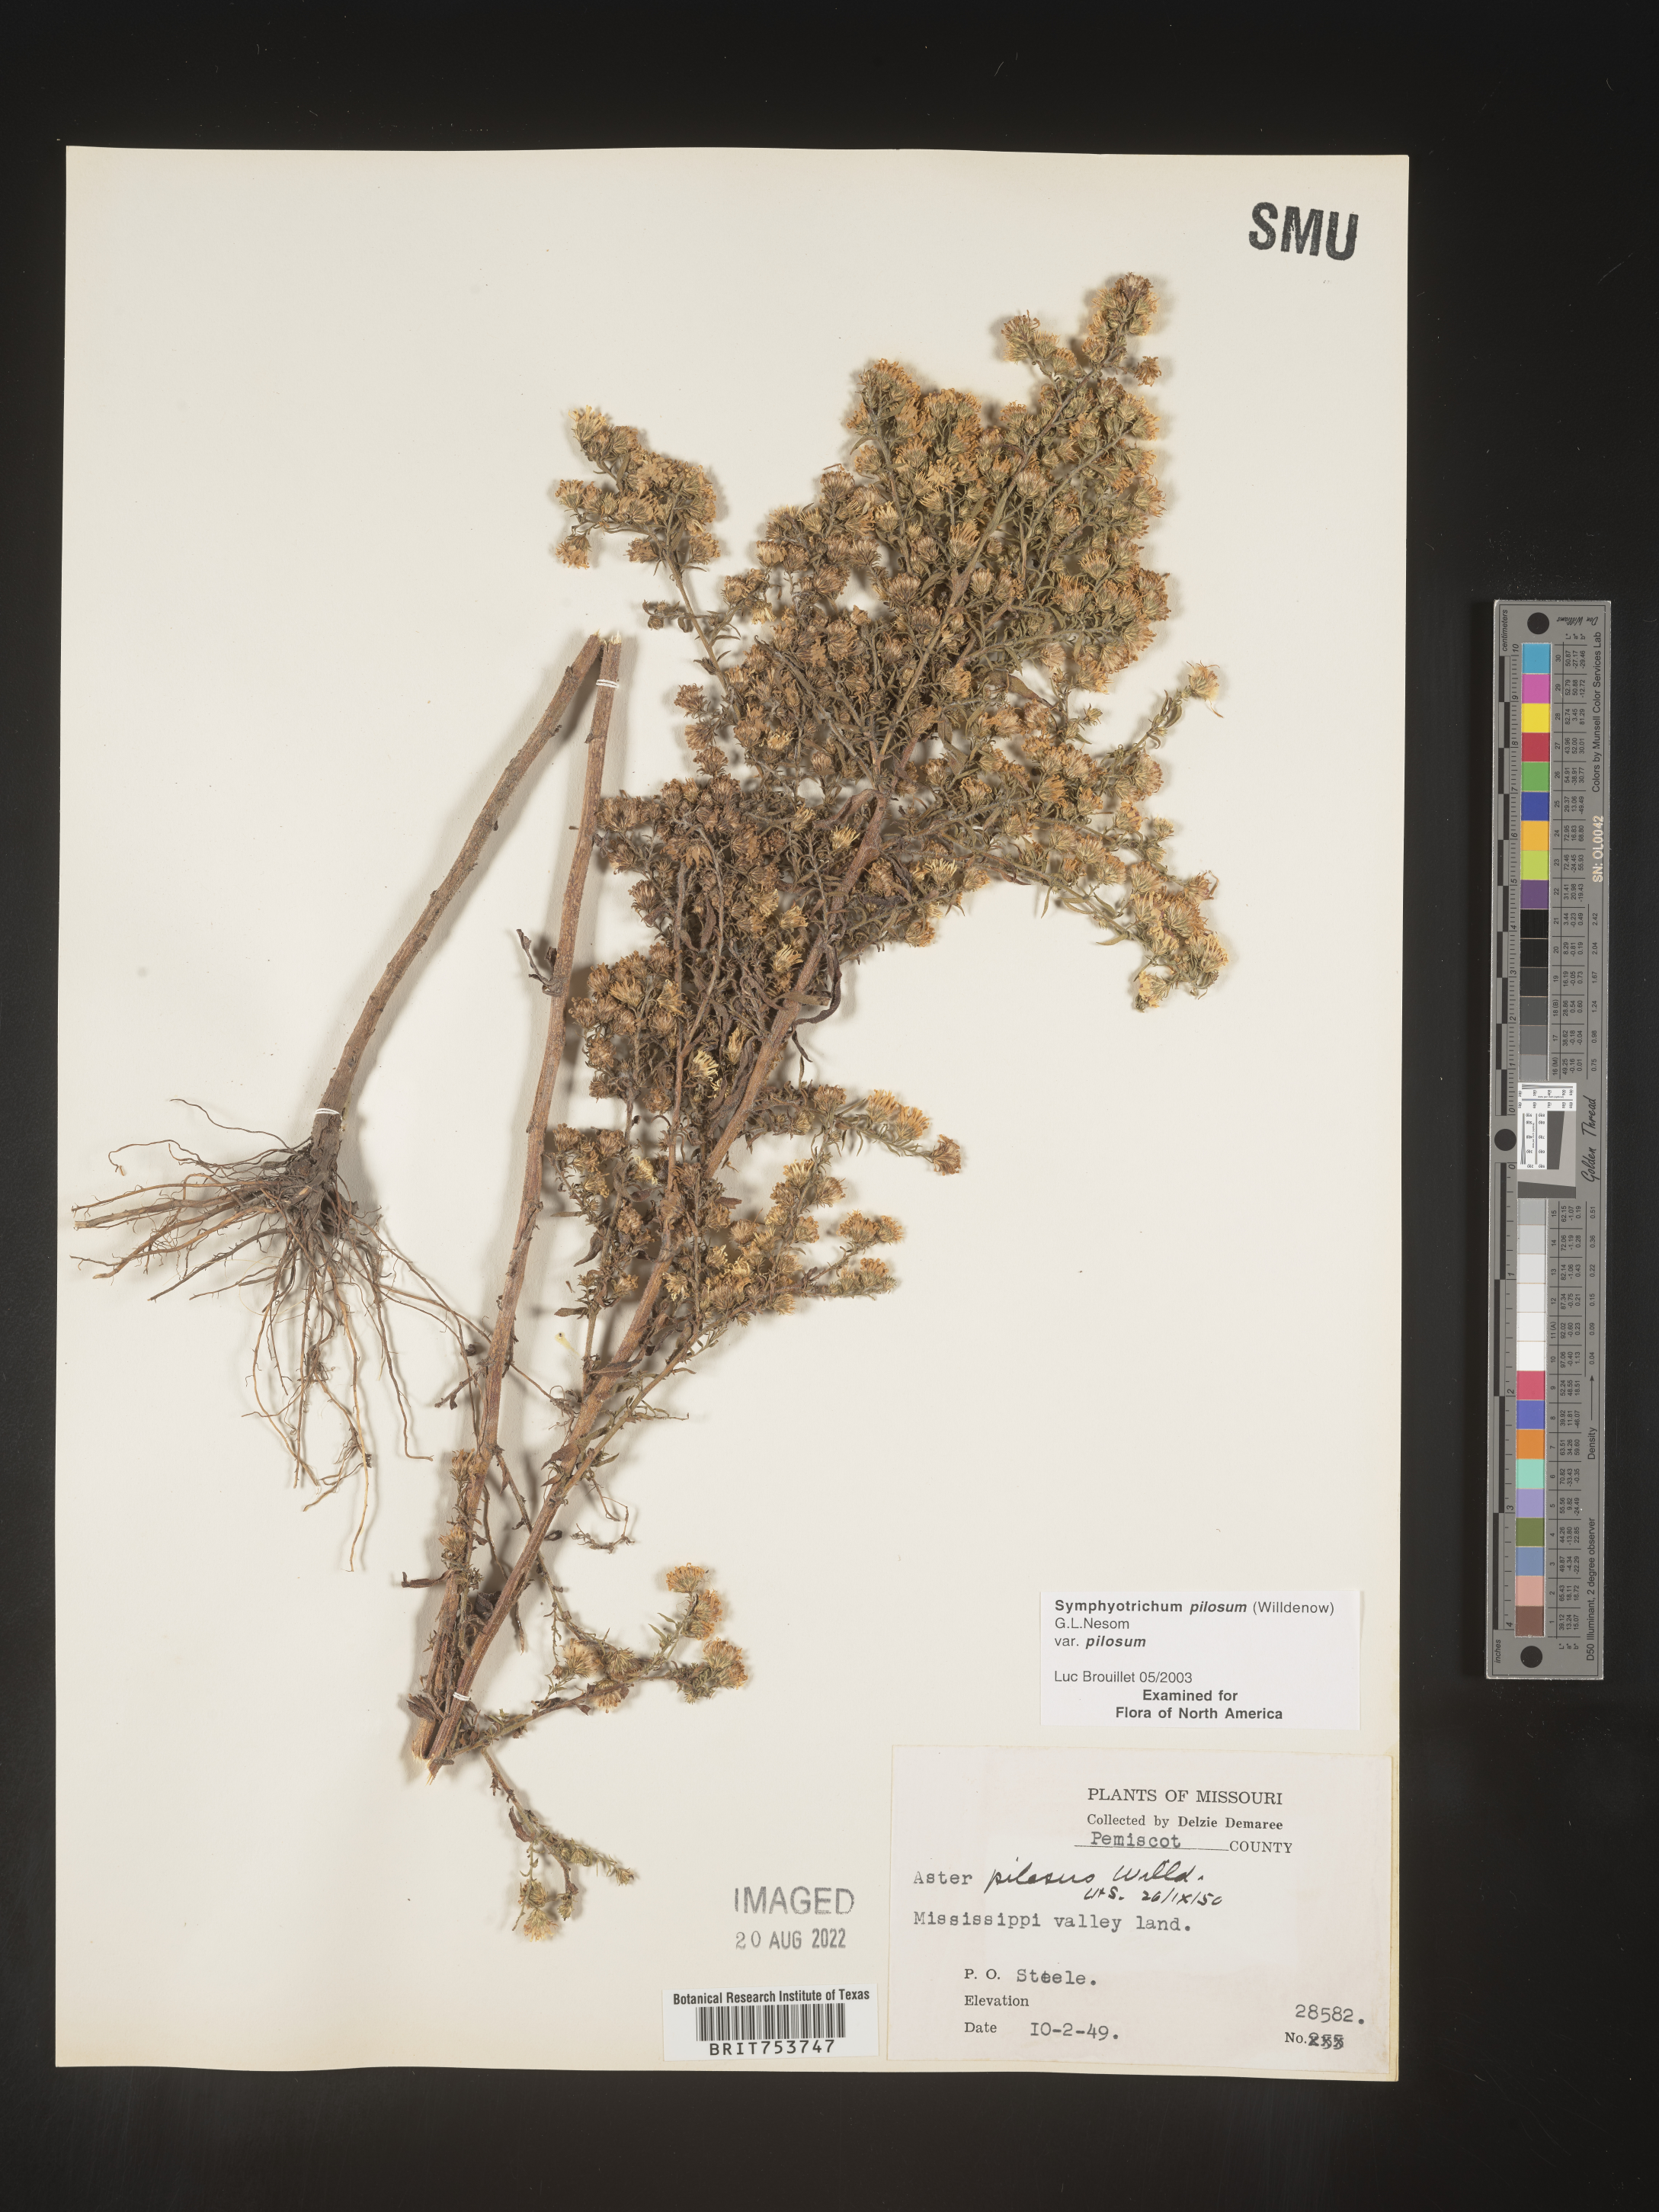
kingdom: Plantae
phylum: Tracheophyta
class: Magnoliopsida
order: Asterales
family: Asteraceae
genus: Symphyotrichum
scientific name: Symphyotrichum pilosum
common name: Awl aster
